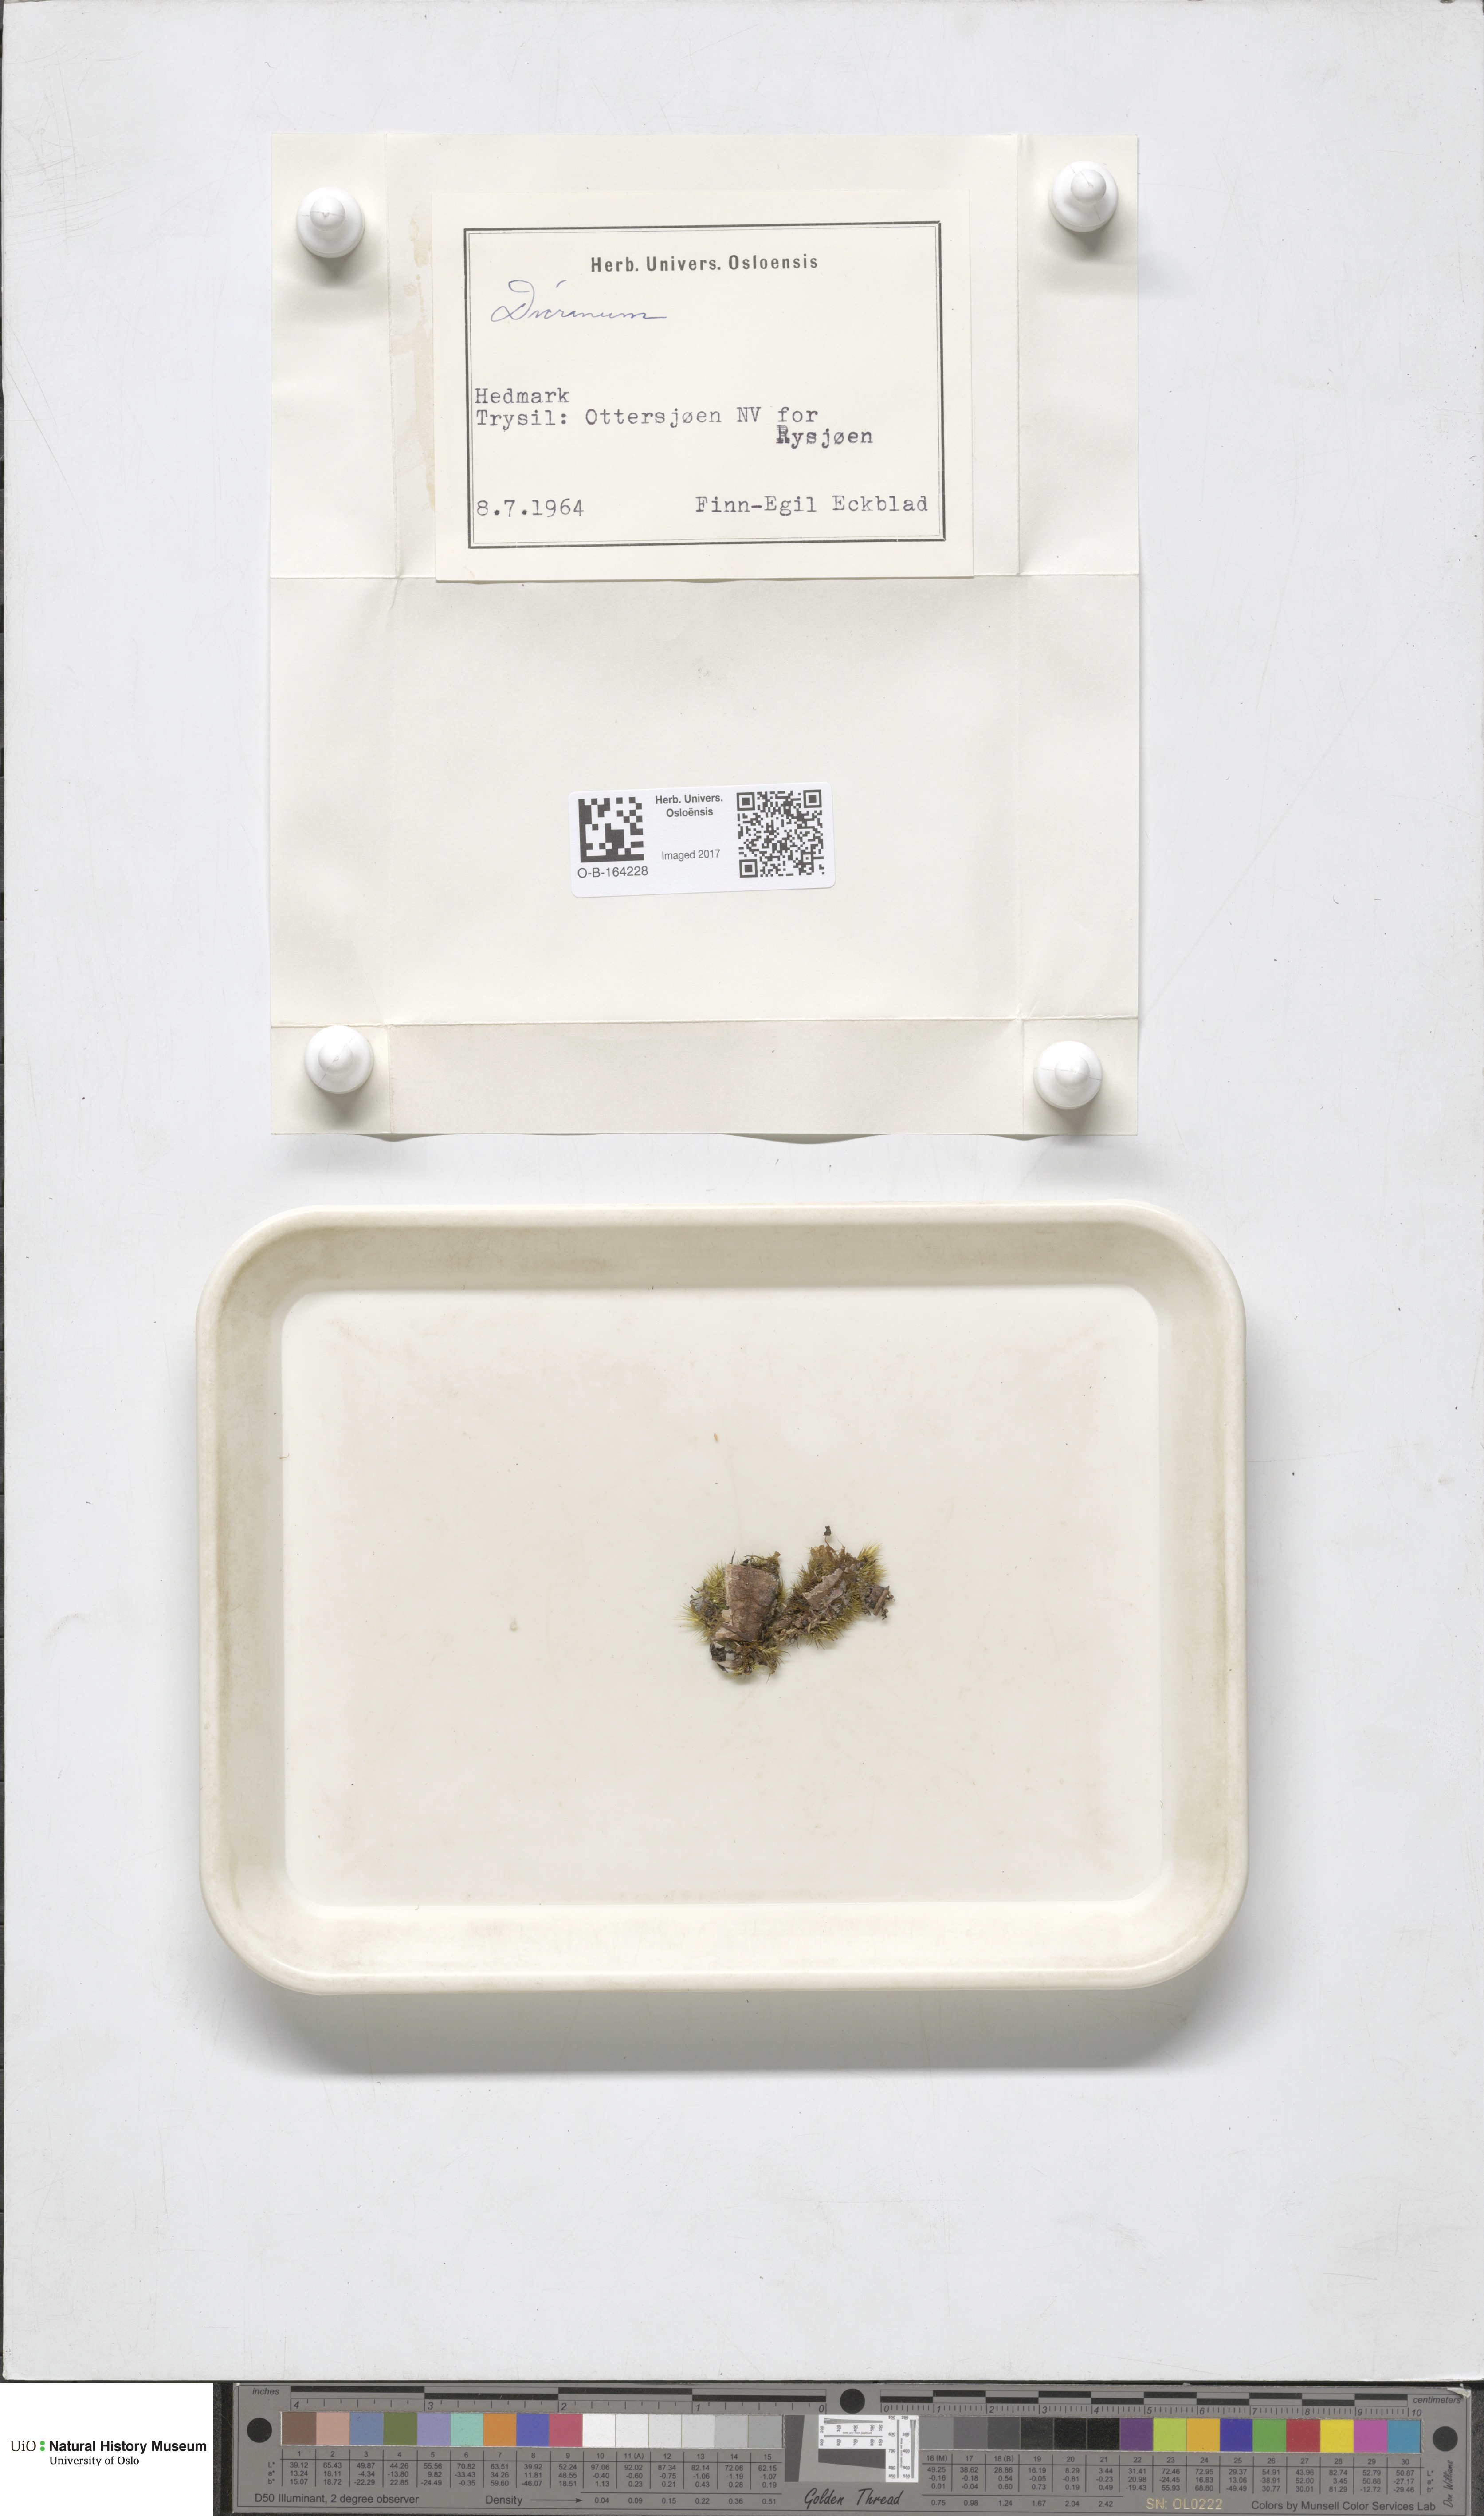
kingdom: Plantae
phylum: Bryophyta
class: Bryopsida
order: Dicranales
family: Dicranaceae
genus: Dicranum
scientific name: Dicranum
